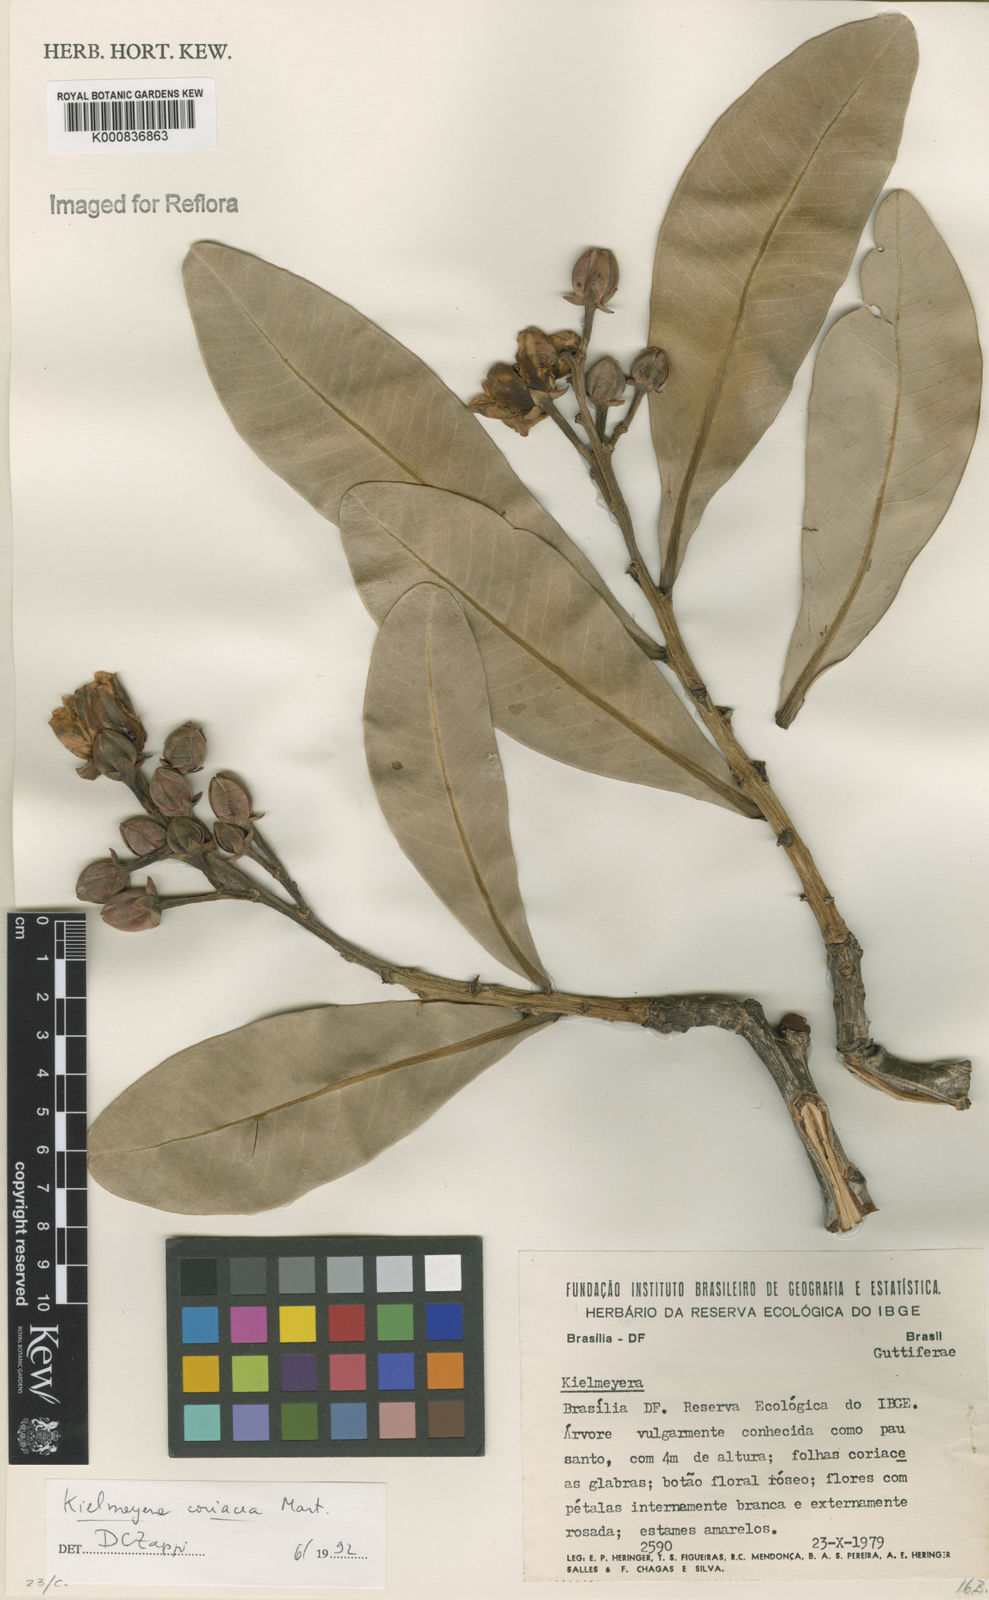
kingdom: Plantae
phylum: Tracheophyta
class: Magnoliopsida
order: Malpighiales
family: Calophyllaceae
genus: Kielmeyera
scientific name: Kielmeyera coriacea
